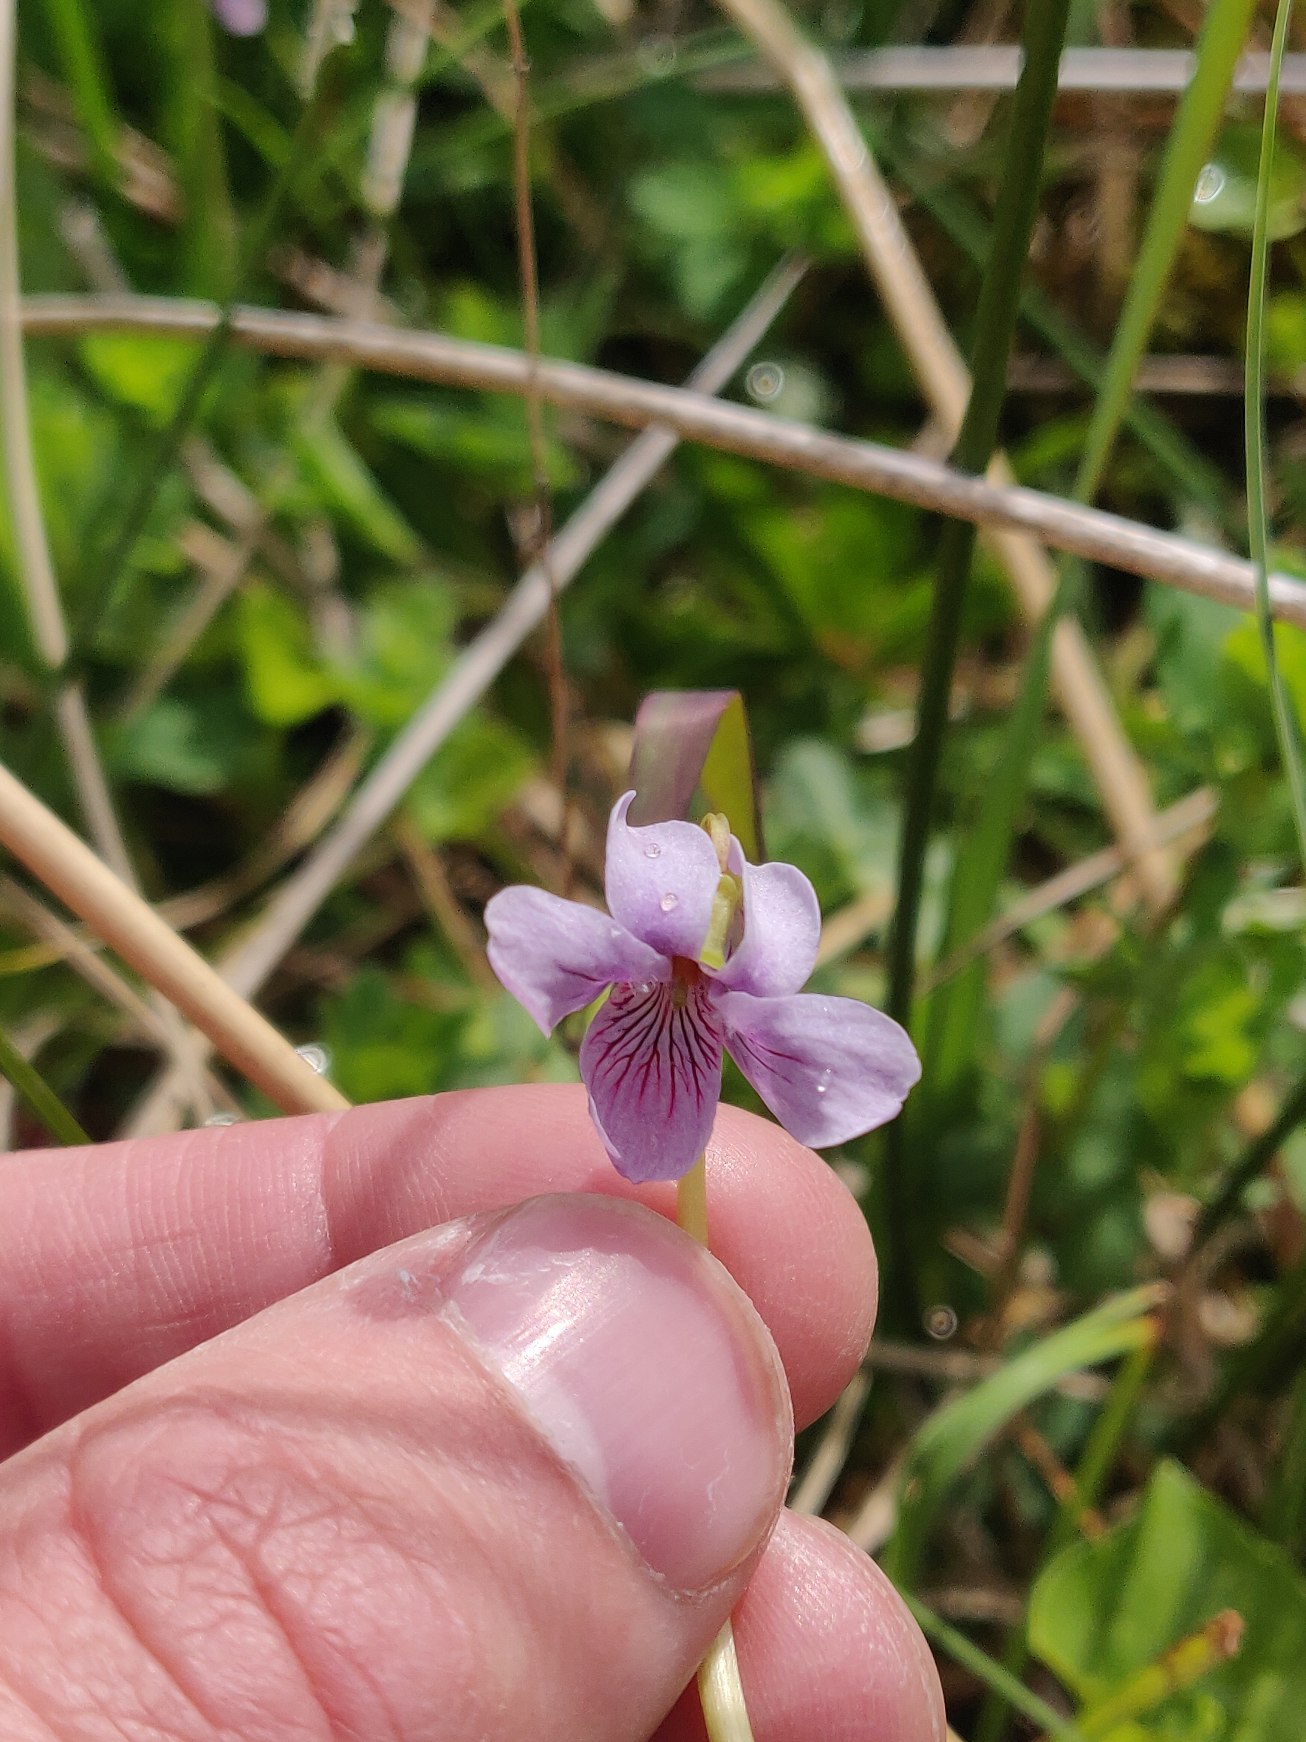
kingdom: Plantae
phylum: Tracheophyta
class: Magnoliopsida
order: Malpighiales
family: Violaceae
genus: Viola
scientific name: Viola palustris
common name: Eng-viol
